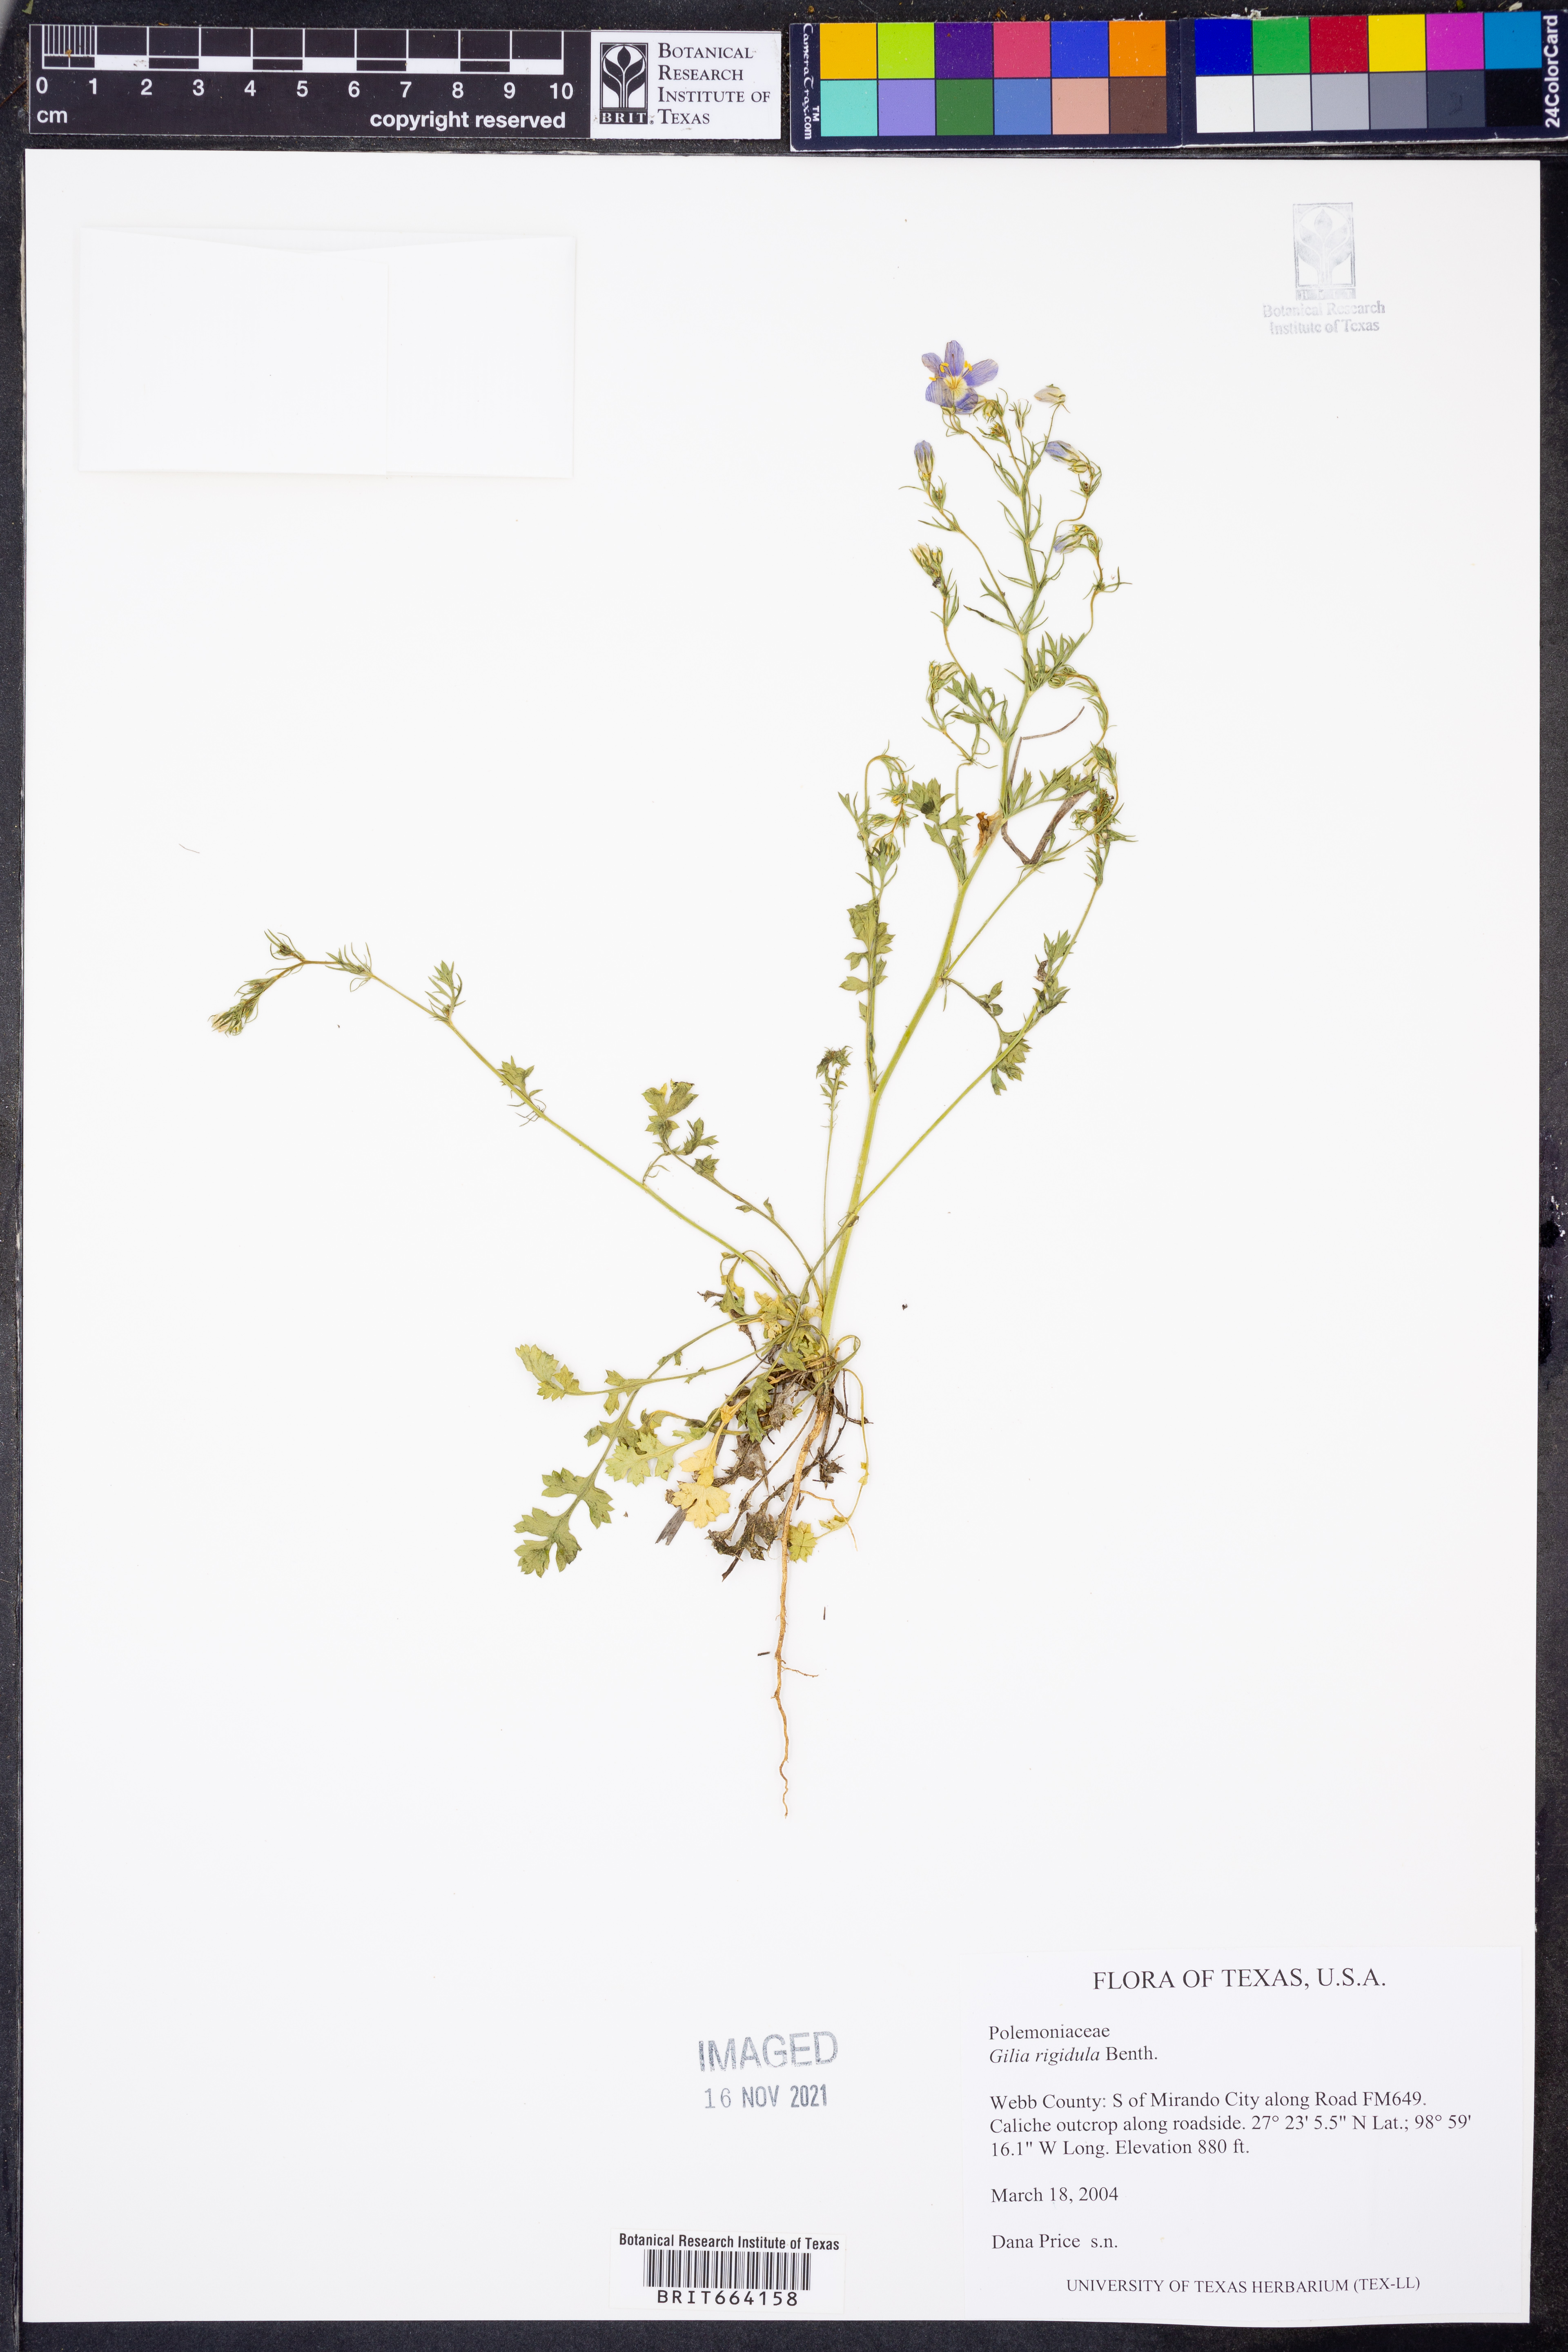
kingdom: Plantae
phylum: Tracheophyta
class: Magnoliopsida
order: Ericales
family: Polemoniaceae
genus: Giliastrum
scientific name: Giliastrum rigidulum
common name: Bluebowls
